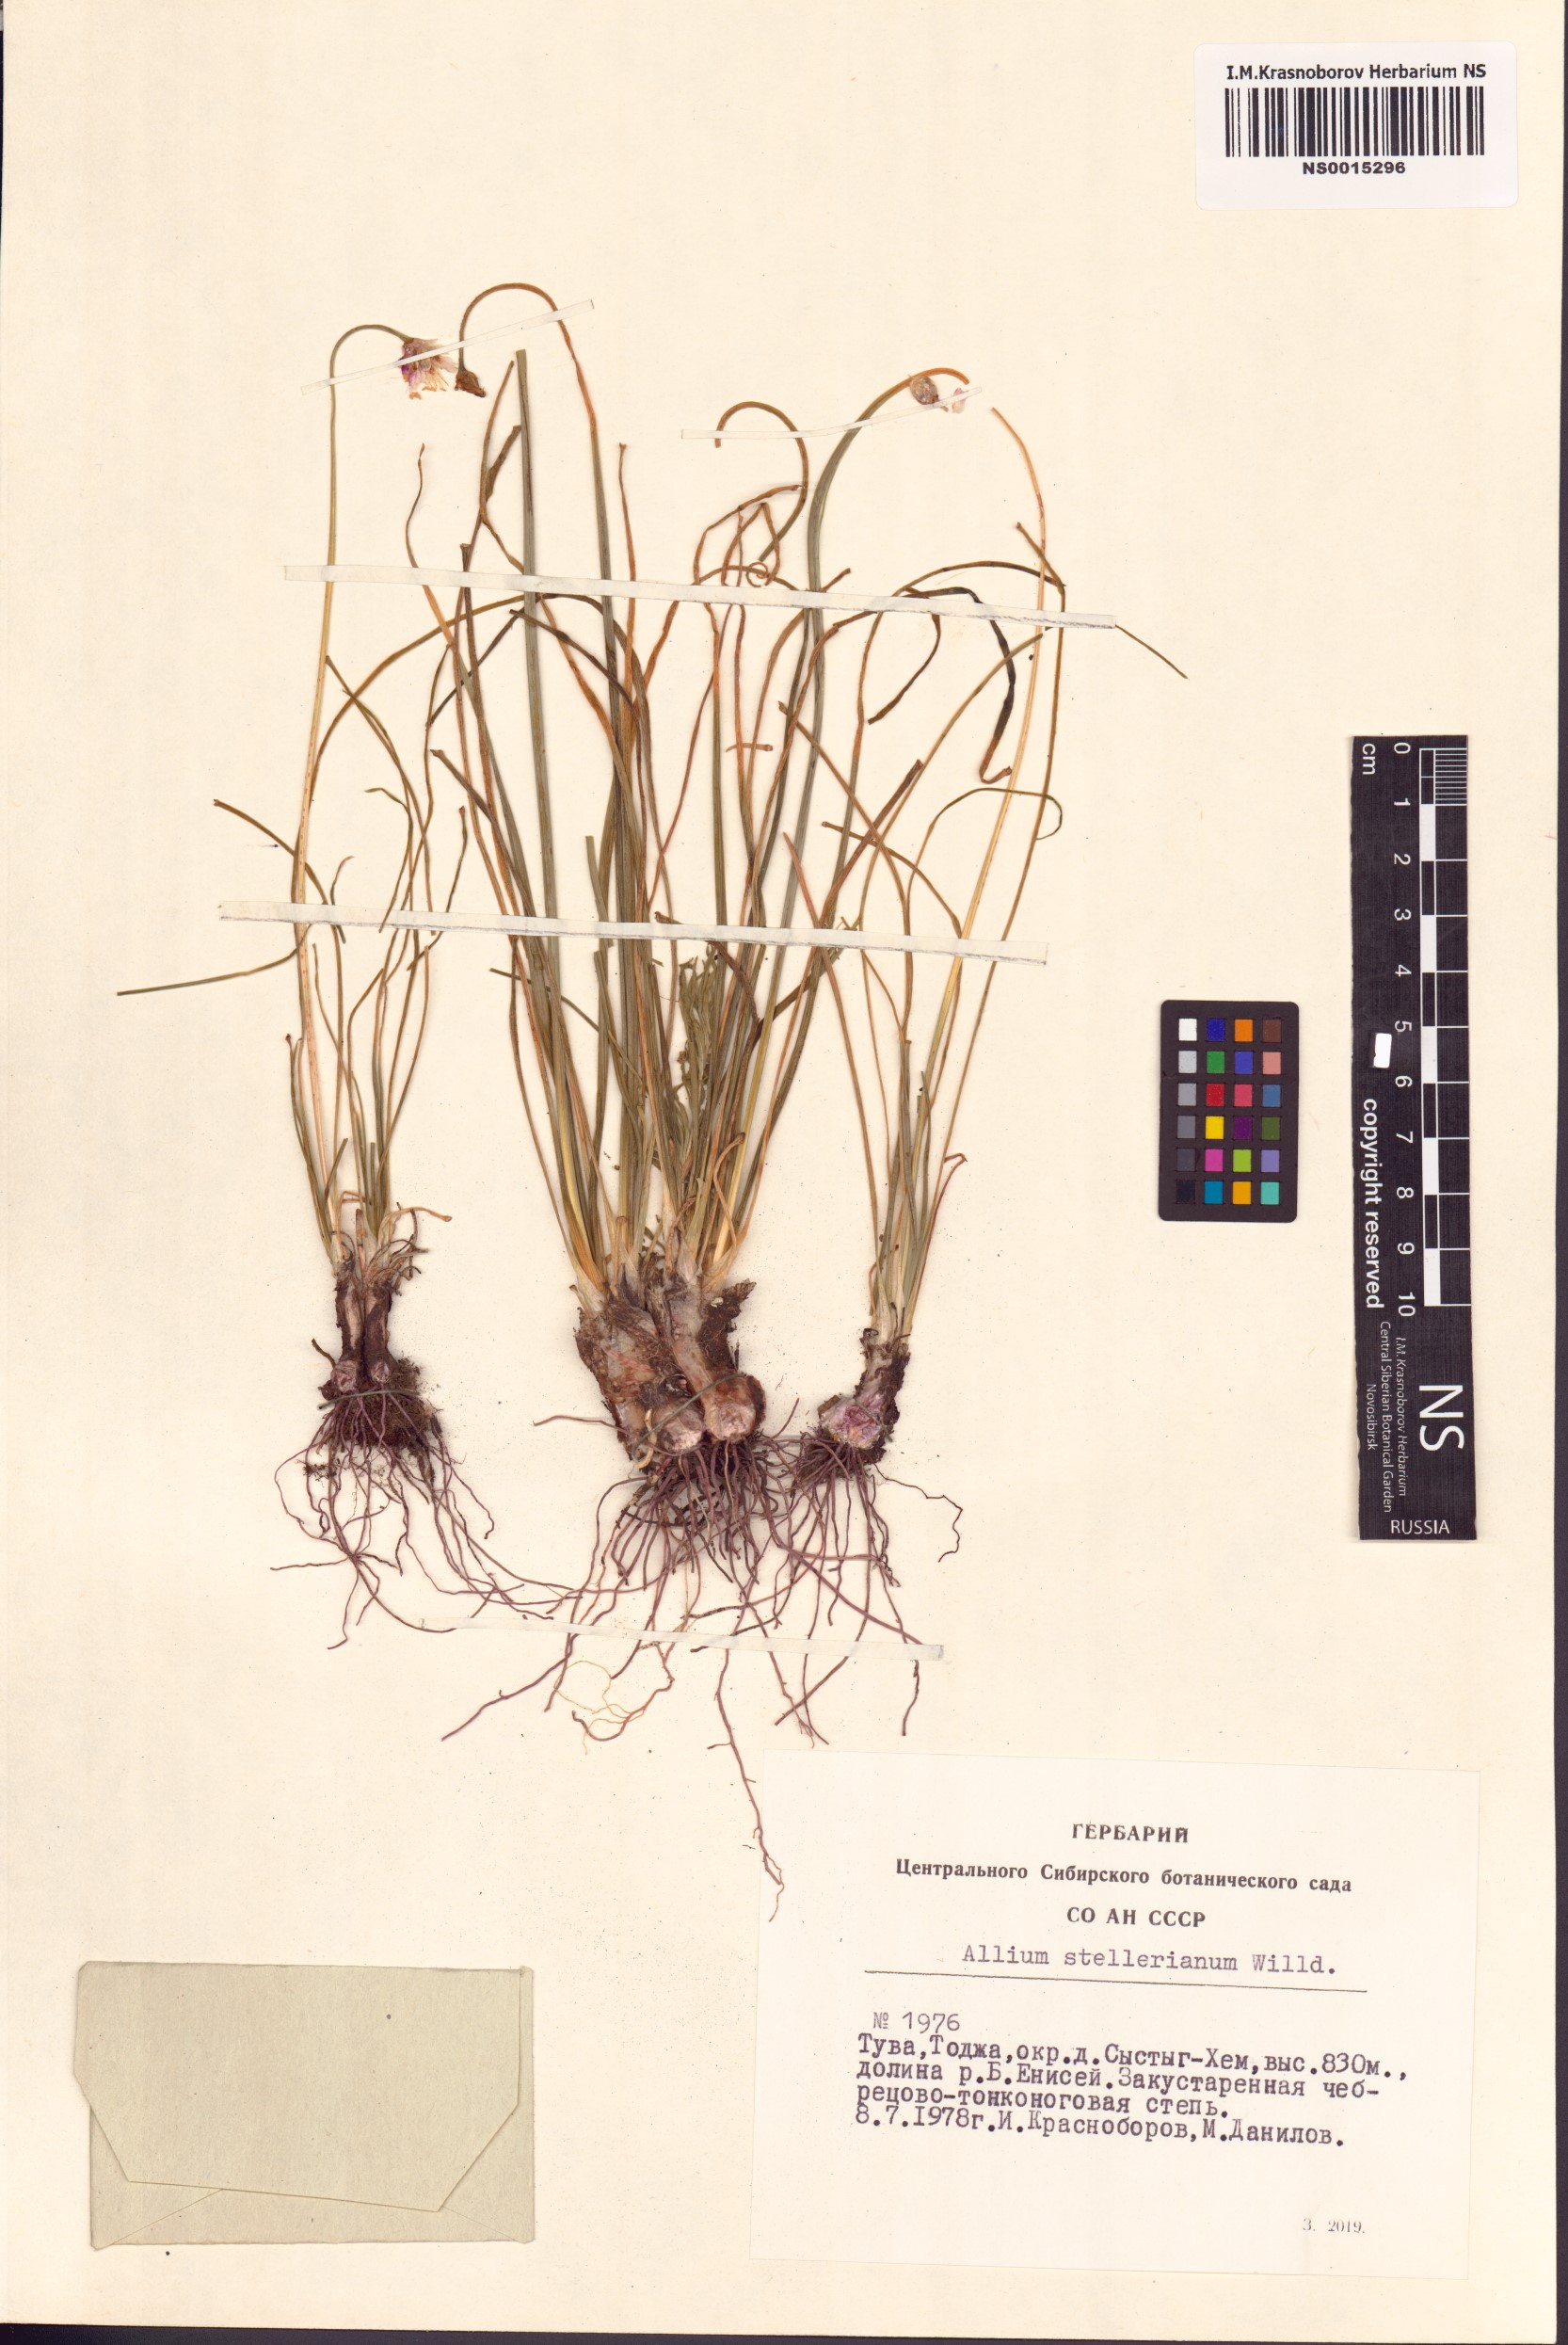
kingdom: Plantae
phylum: Tracheophyta
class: Liliopsida
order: Asparagales
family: Amaryllidaceae
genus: Allium
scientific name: Allium stellerianum
